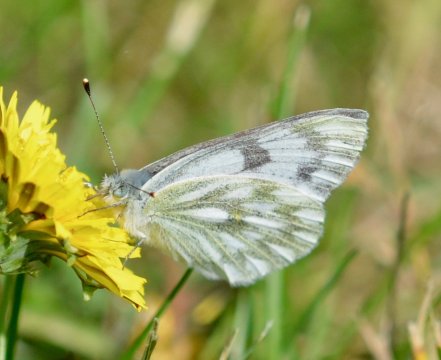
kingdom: Animalia
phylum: Arthropoda
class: Insecta
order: Lepidoptera
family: Pieridae
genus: Pontia
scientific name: Pontia occidentalis
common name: Western White
